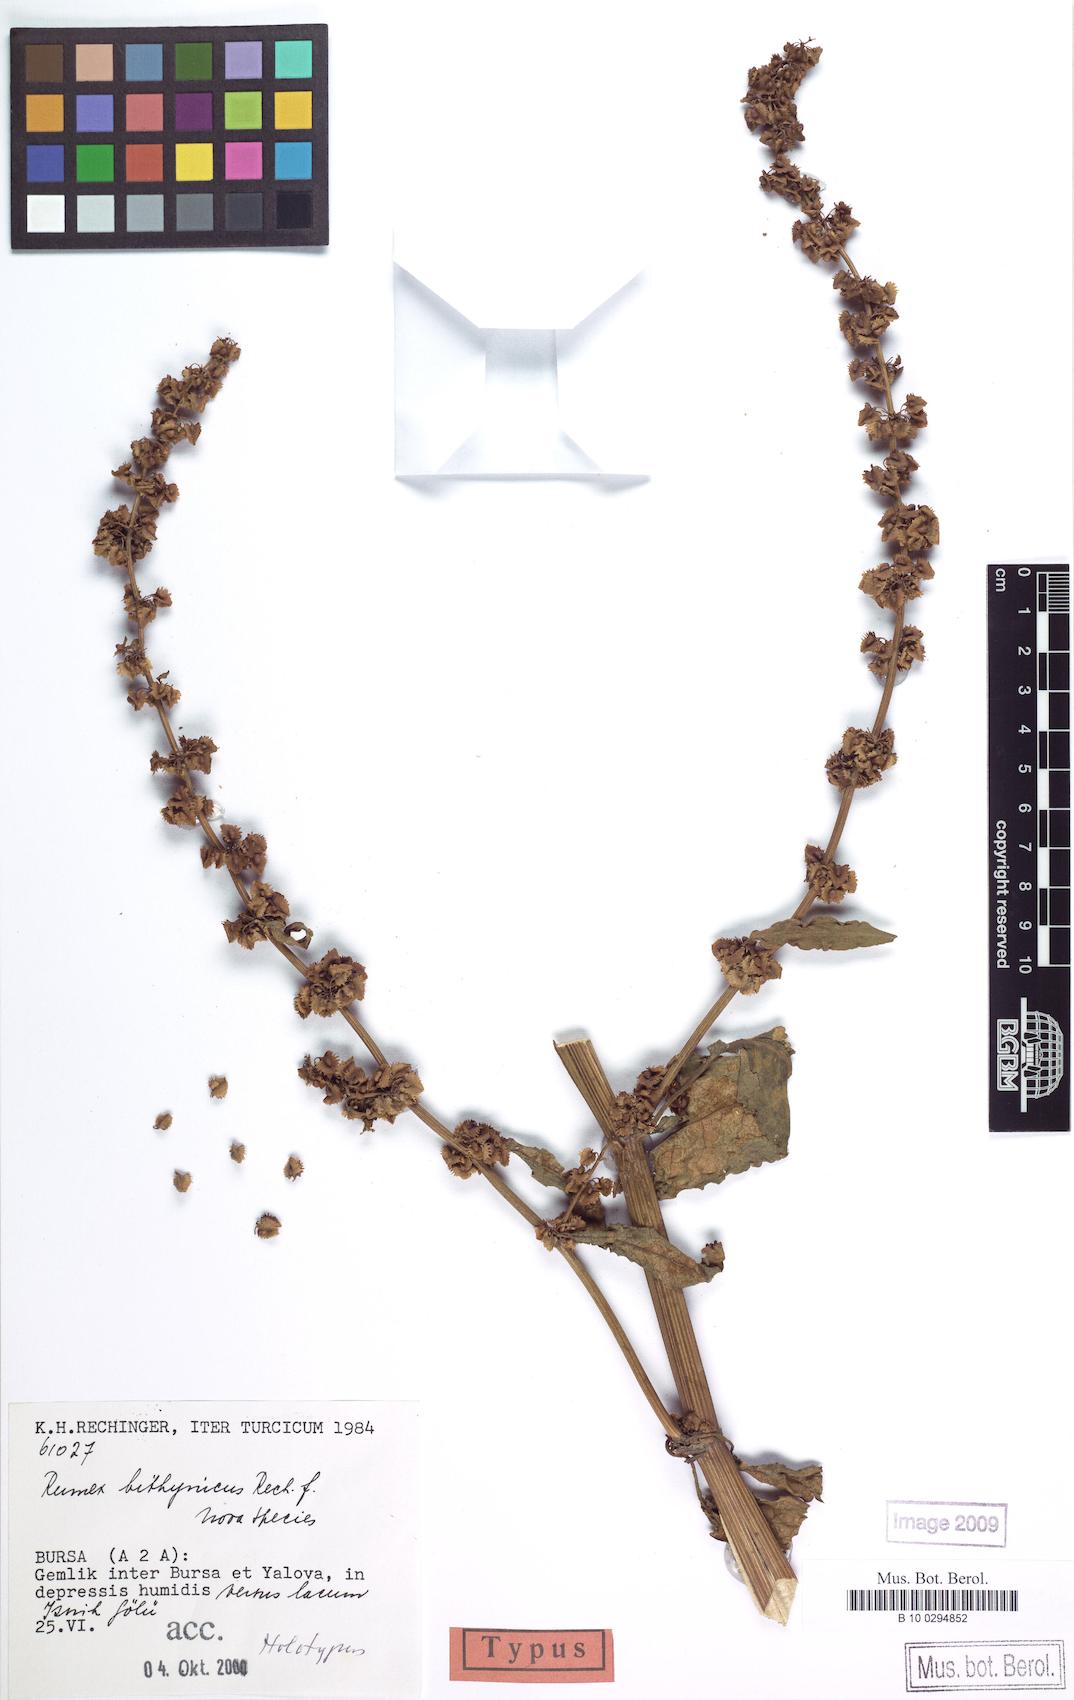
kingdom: Plantae
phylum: Tracheophyta
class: Magnoliopsida
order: Caryophyllales
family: Polygonaceae
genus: Rumex
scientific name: Rumex bithynicus
